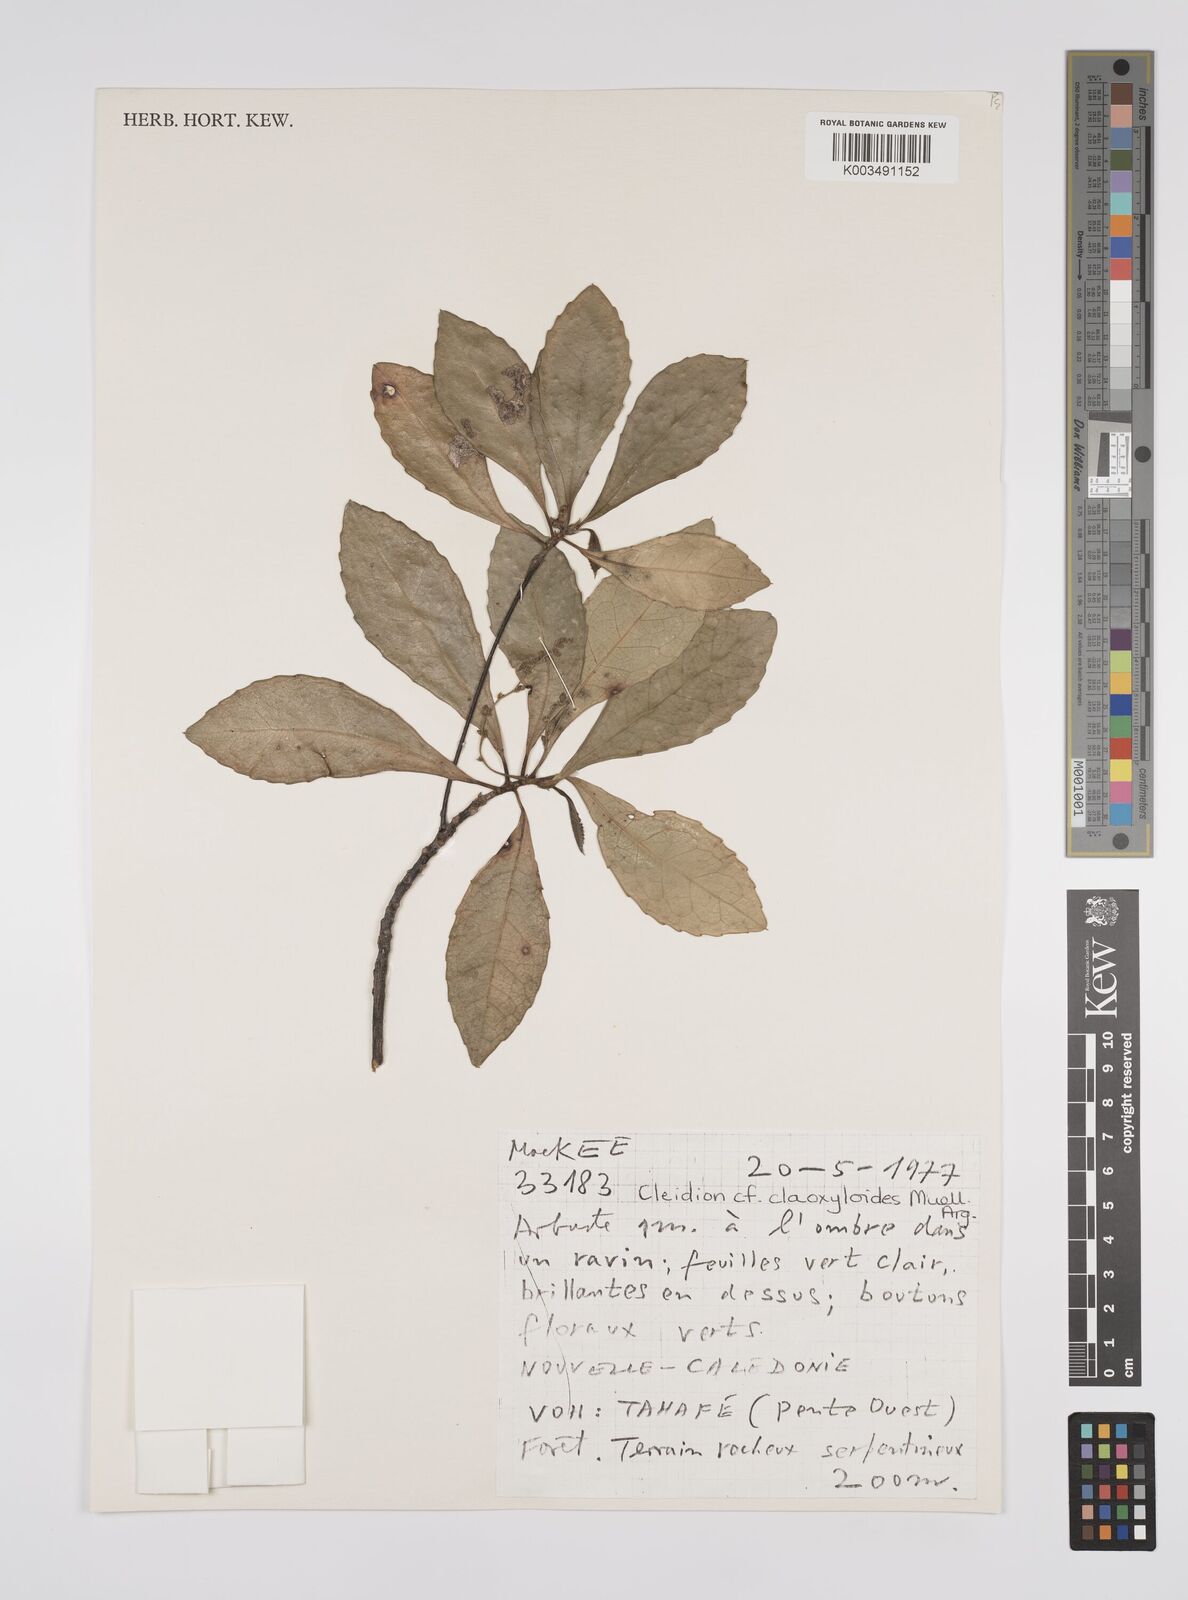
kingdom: Plantae
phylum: Tracheophyta
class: Magnoliopsida
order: Malpighiales
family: Euphorbiaceae
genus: Cleidion
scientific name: Cleidion claoxyloides
